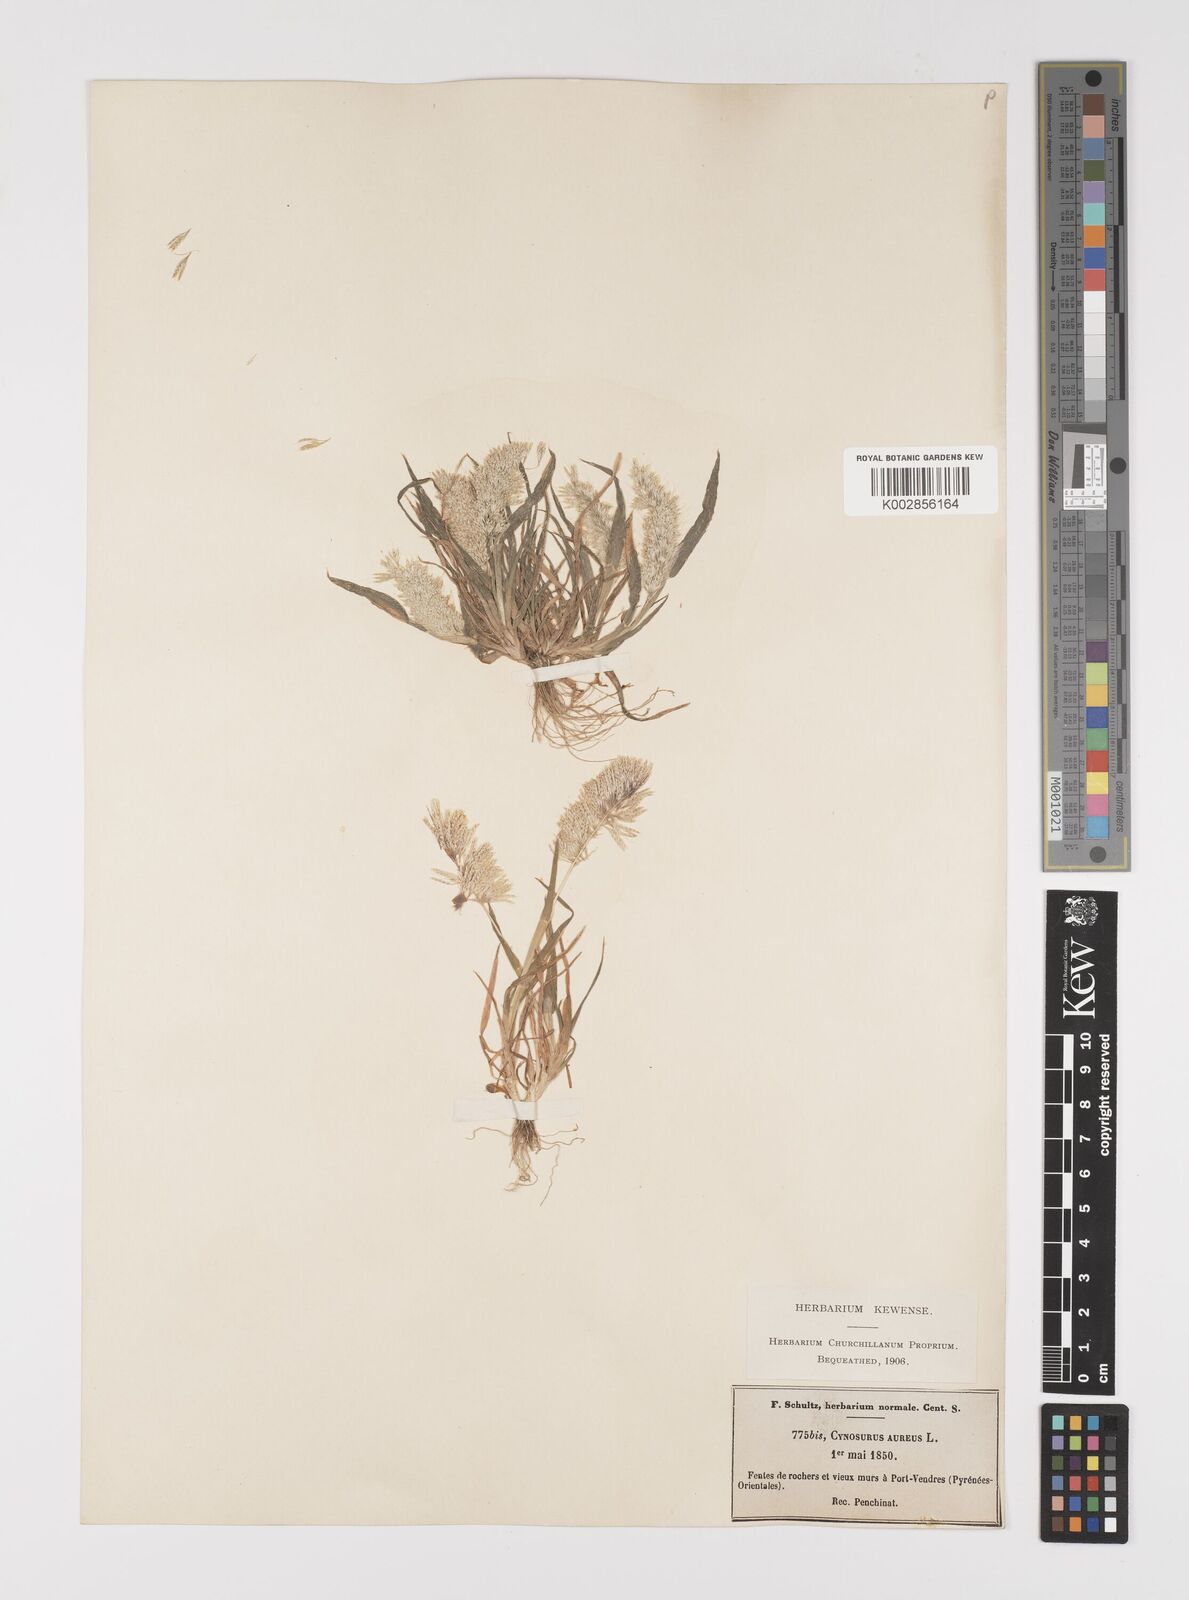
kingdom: Plantae
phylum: Tracheophyta
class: Liliopsida
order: Poales
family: Poaceae
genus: Lamarckia
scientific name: Lamarckia aurea
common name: Golden dog's-tail
